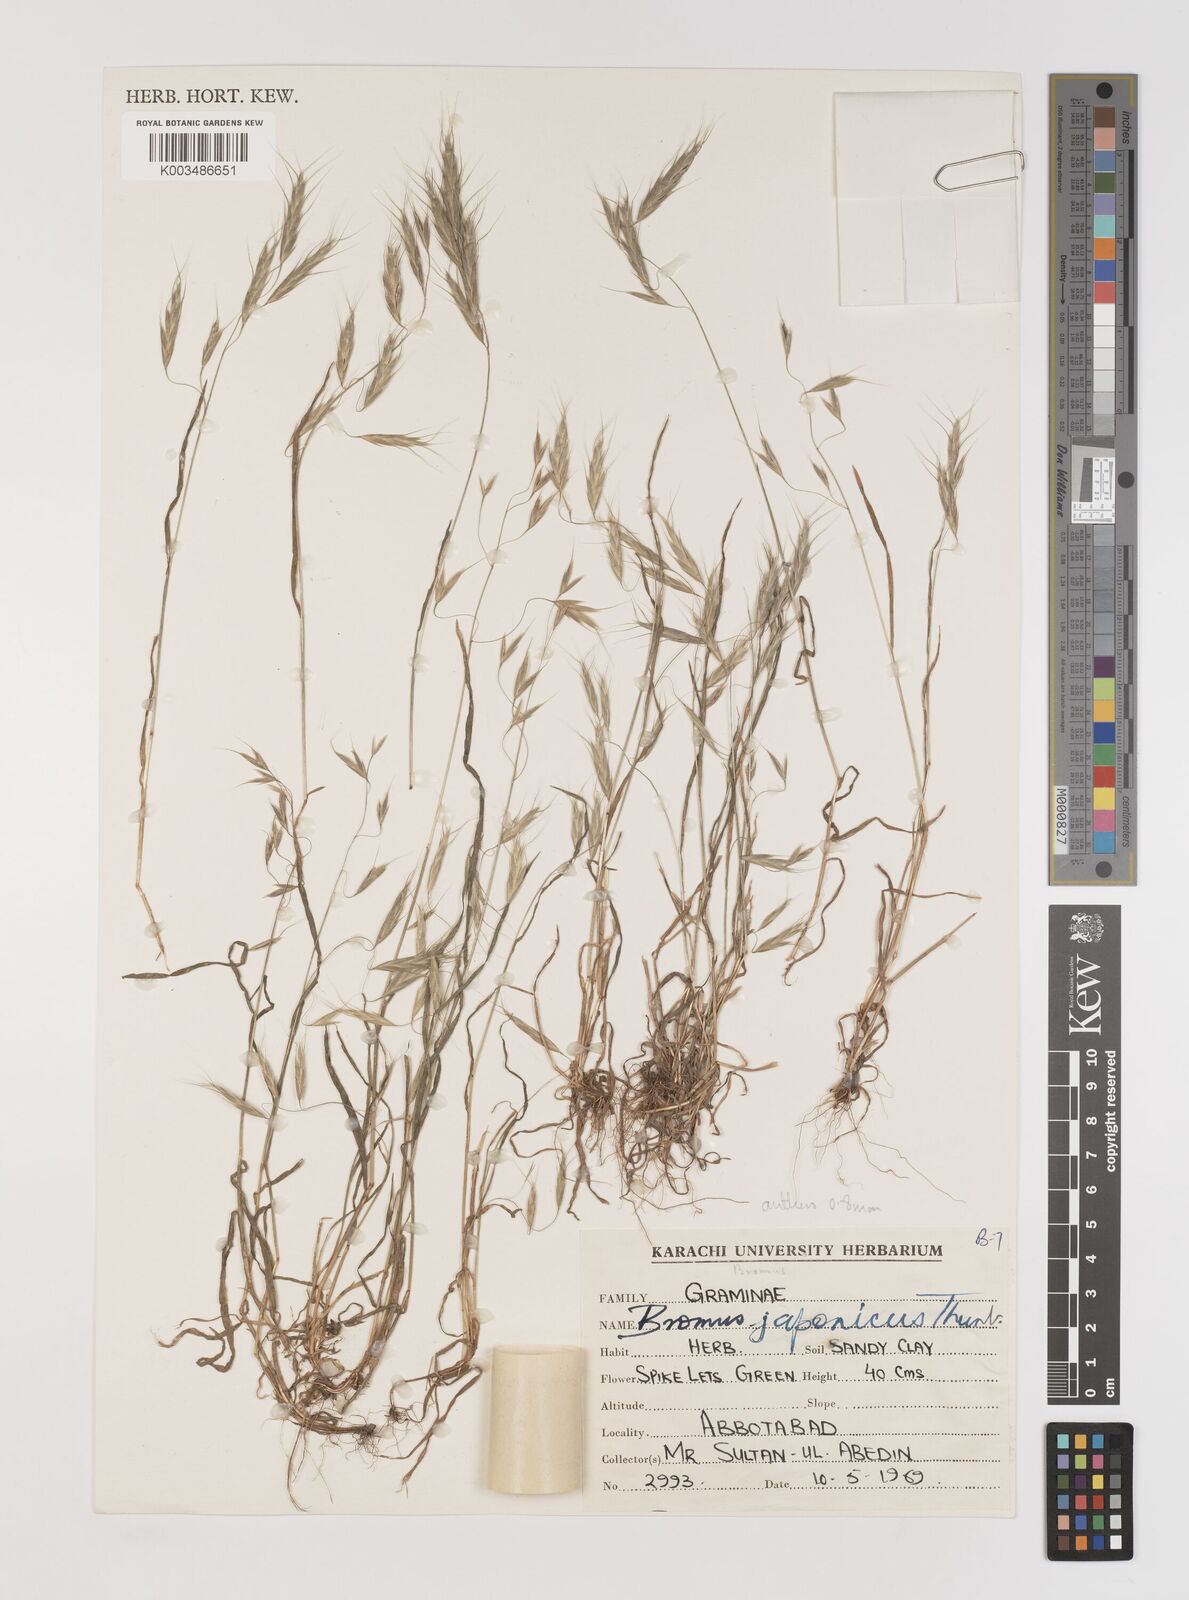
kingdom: Plantae
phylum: Tracheophyta
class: Liliopsida
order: Poales
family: Poaceae
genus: Bromus
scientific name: Bromus pectinatus
